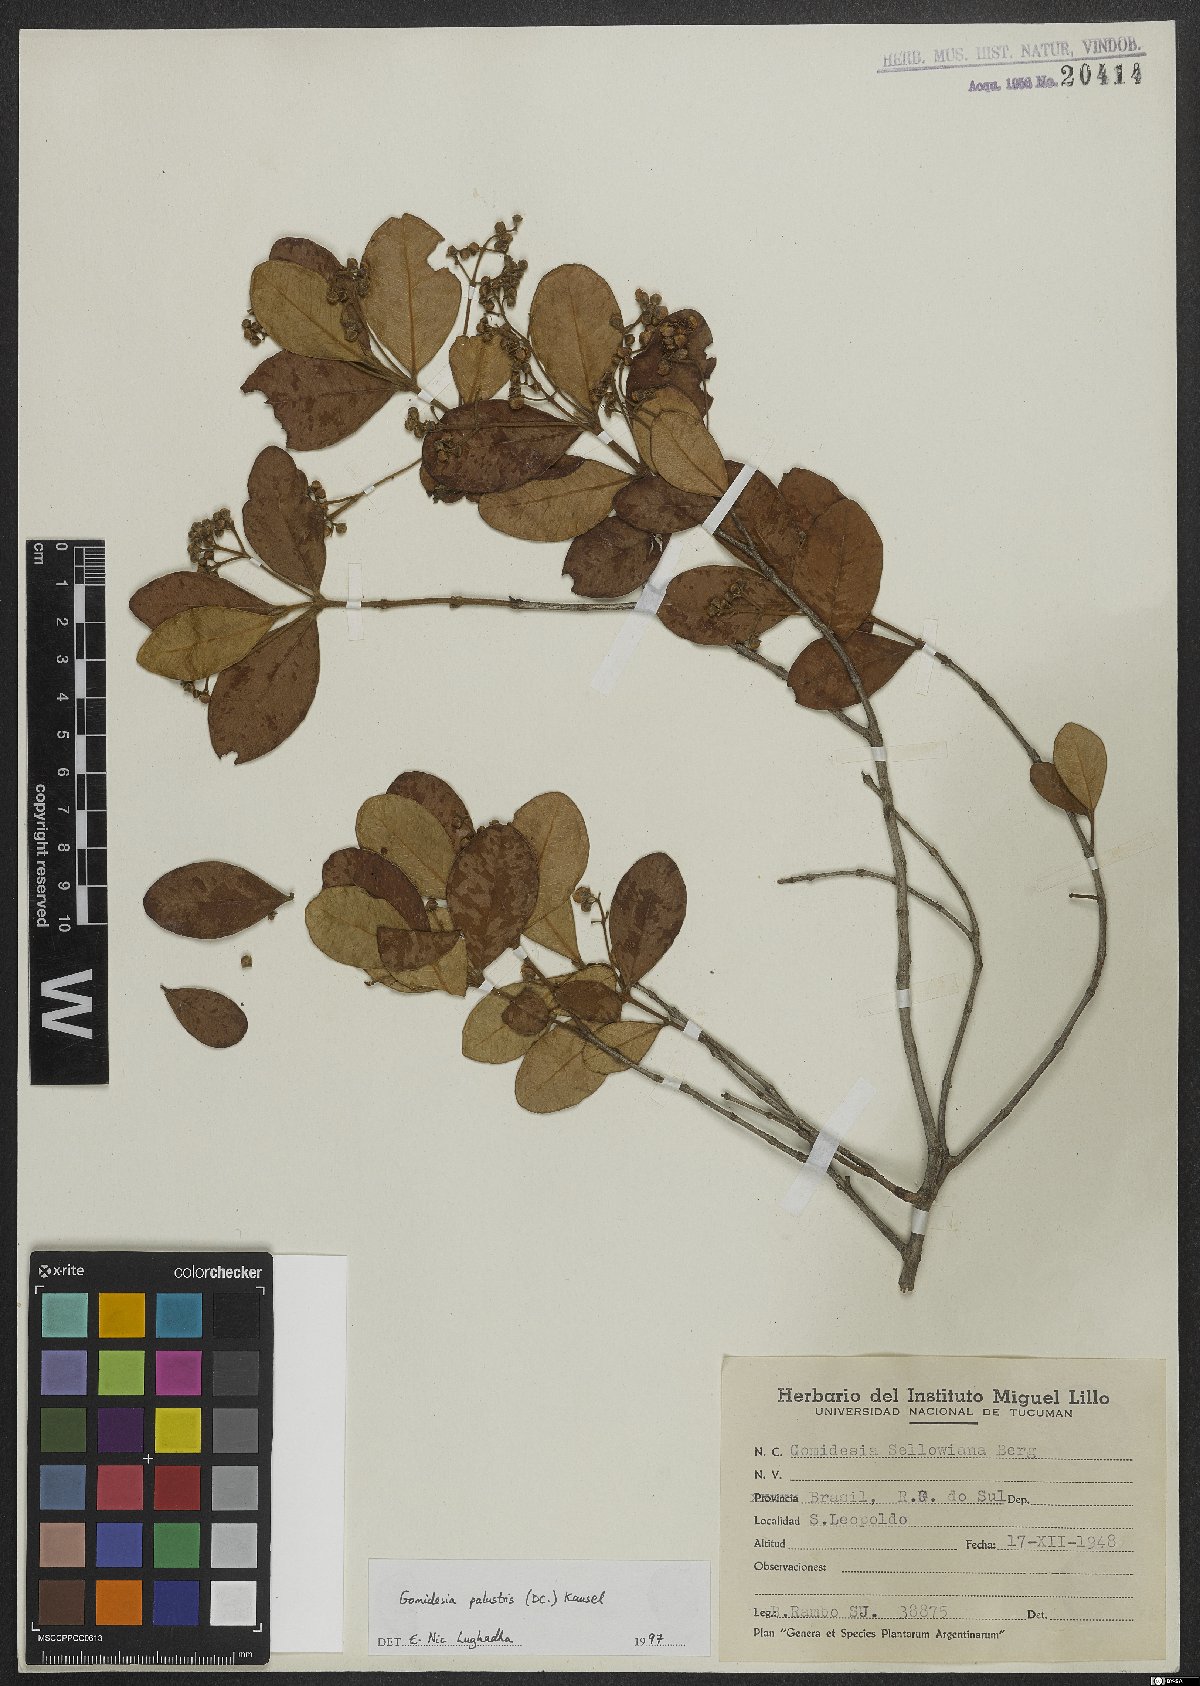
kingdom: Plantae
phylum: Tracheophyta
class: Magnoliopsida
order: Myrtales
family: Myrtaceae
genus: Myrcia
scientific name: Myrcia palustris
